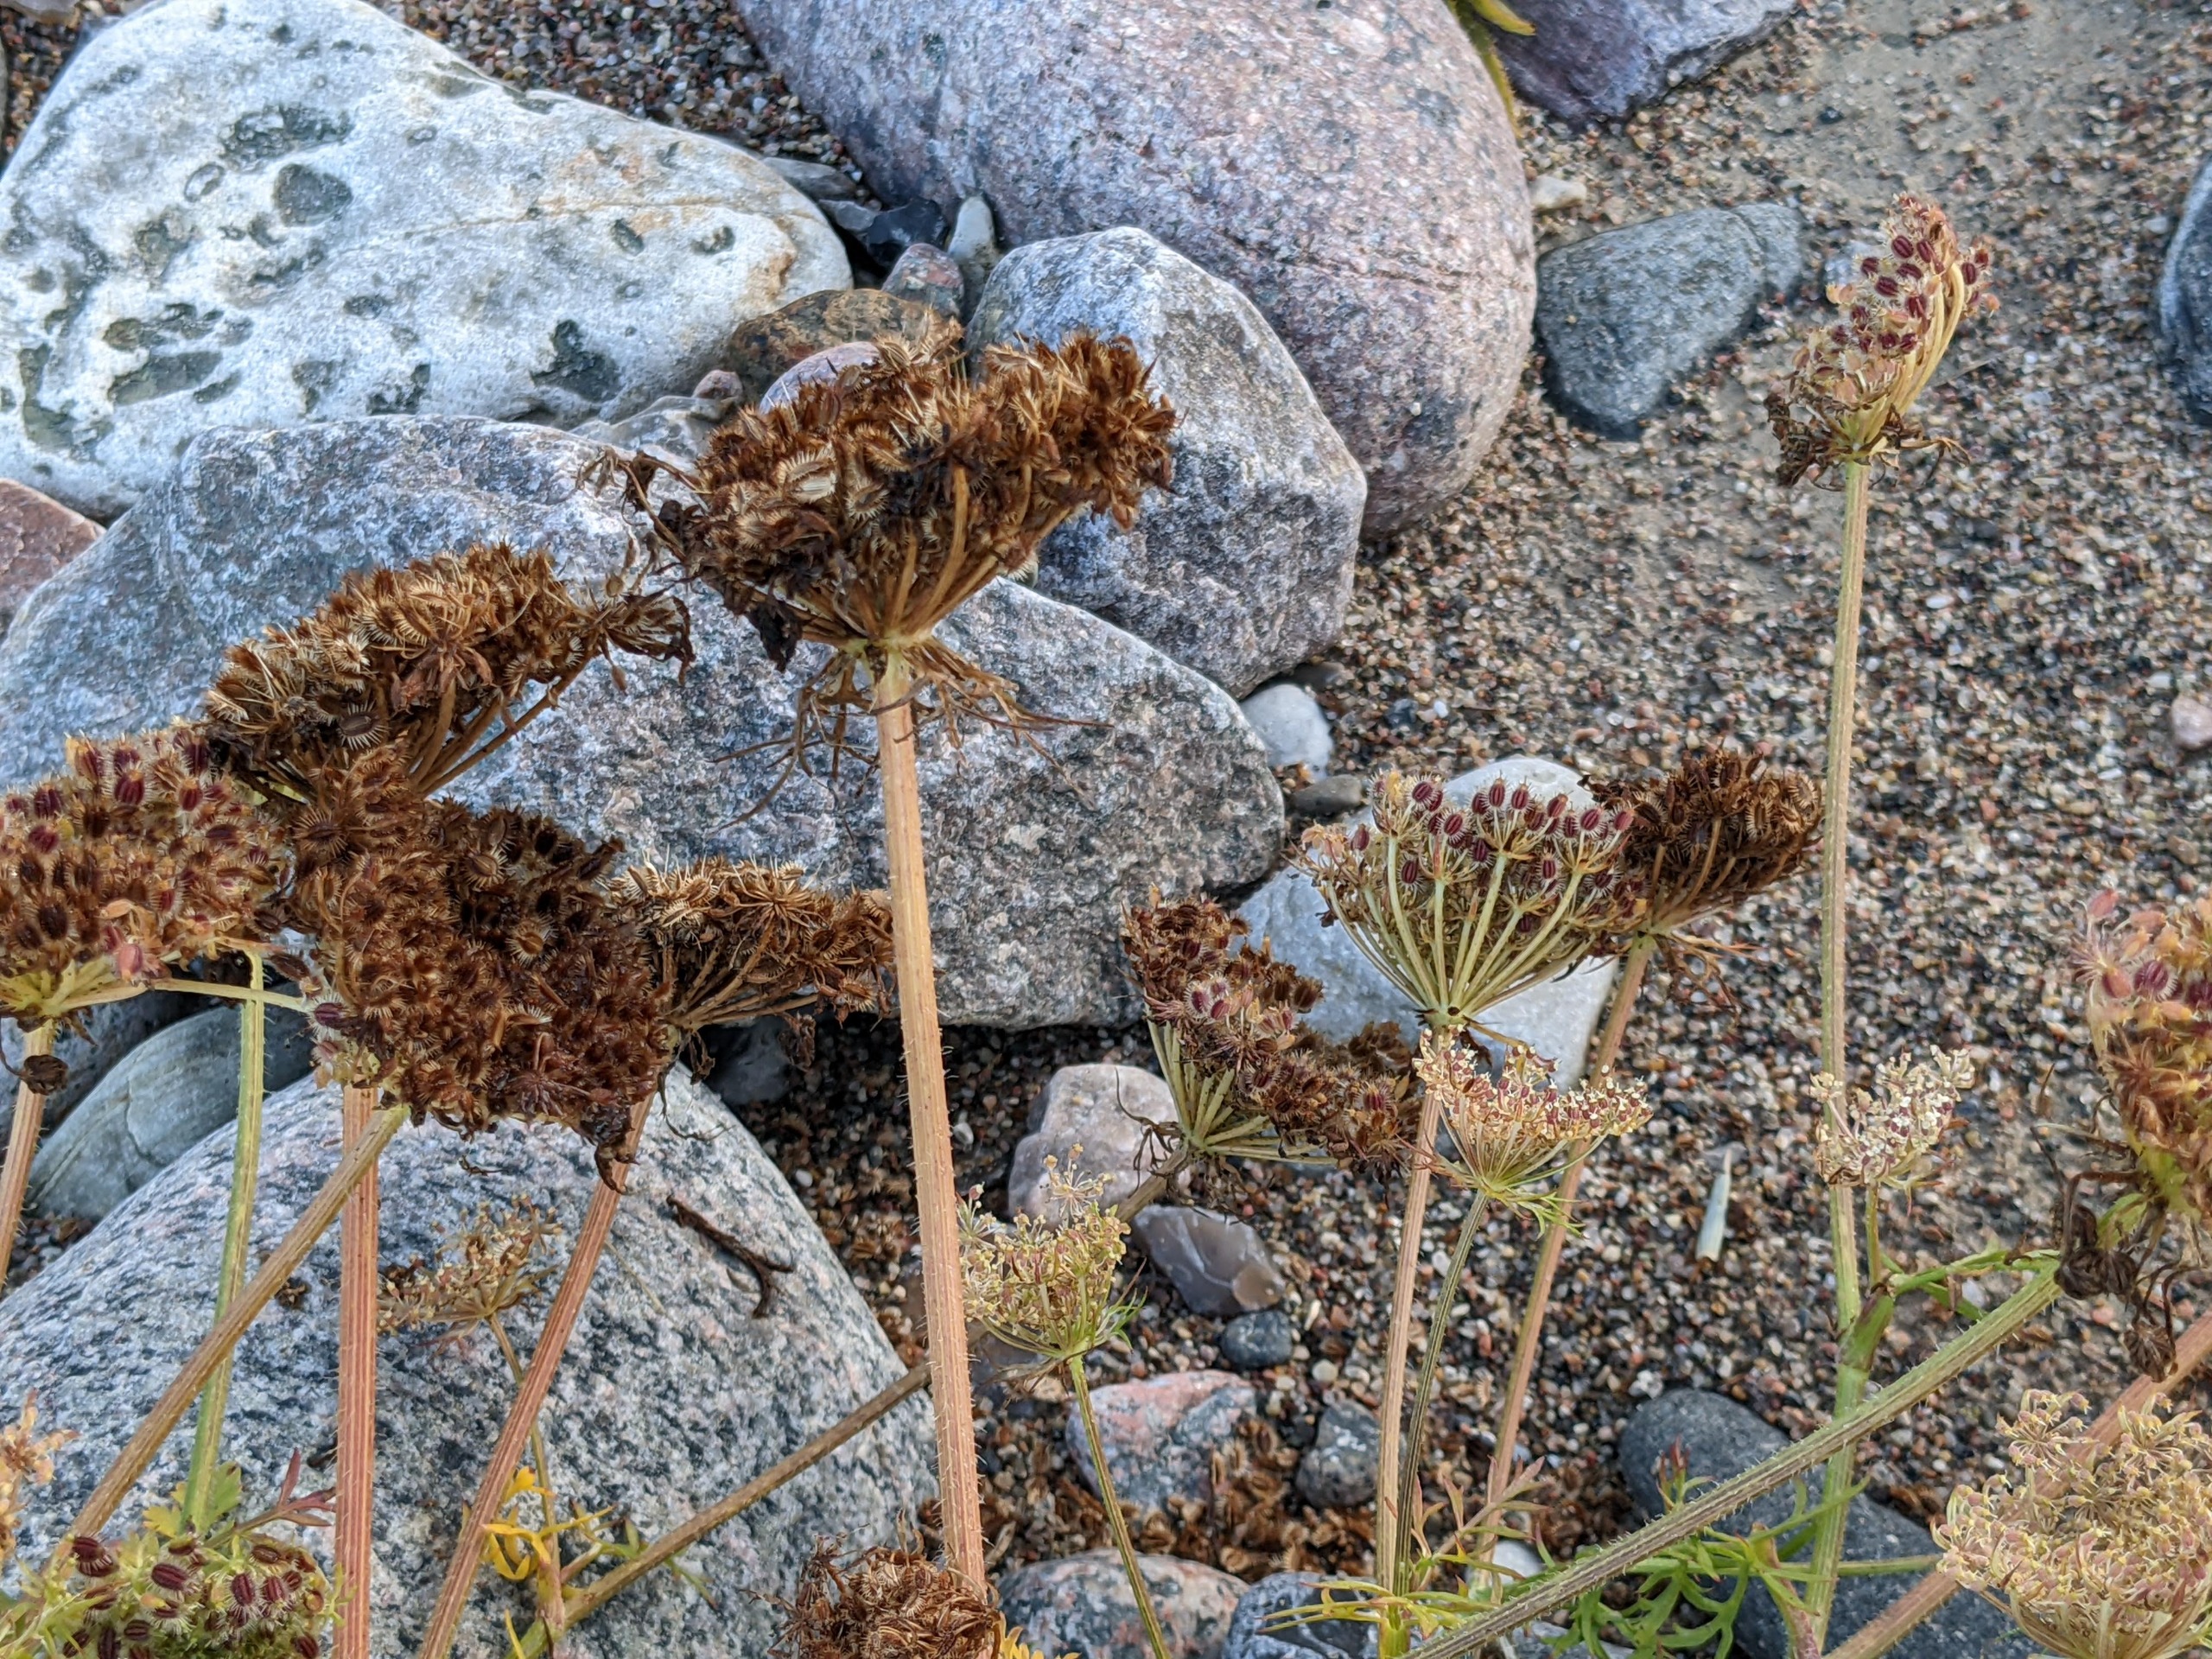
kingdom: Plantae
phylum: Tracheophyta
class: Magnoliopsida
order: Apiales
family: Apiaceae
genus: Daucus
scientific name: Daucus carota
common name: Gulerod
